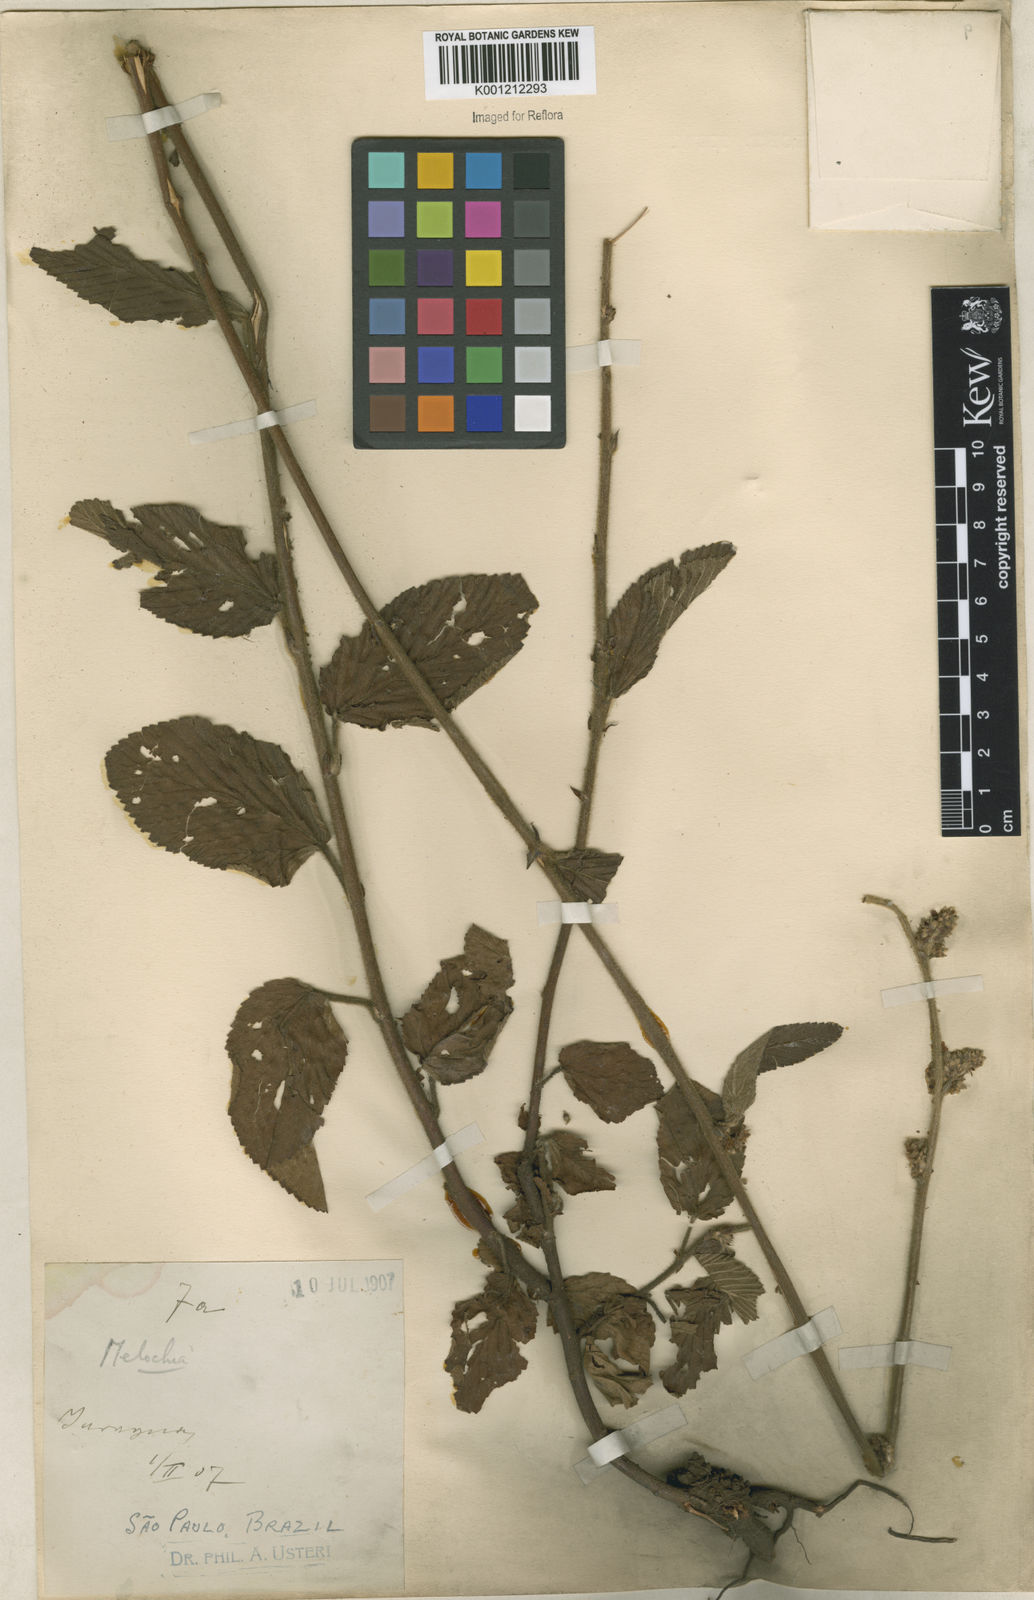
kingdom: Plantae
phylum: Tracheophyta
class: Magnoliopsida
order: Malvales
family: Malvaceae
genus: Melochia
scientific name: Melochia pilosa
